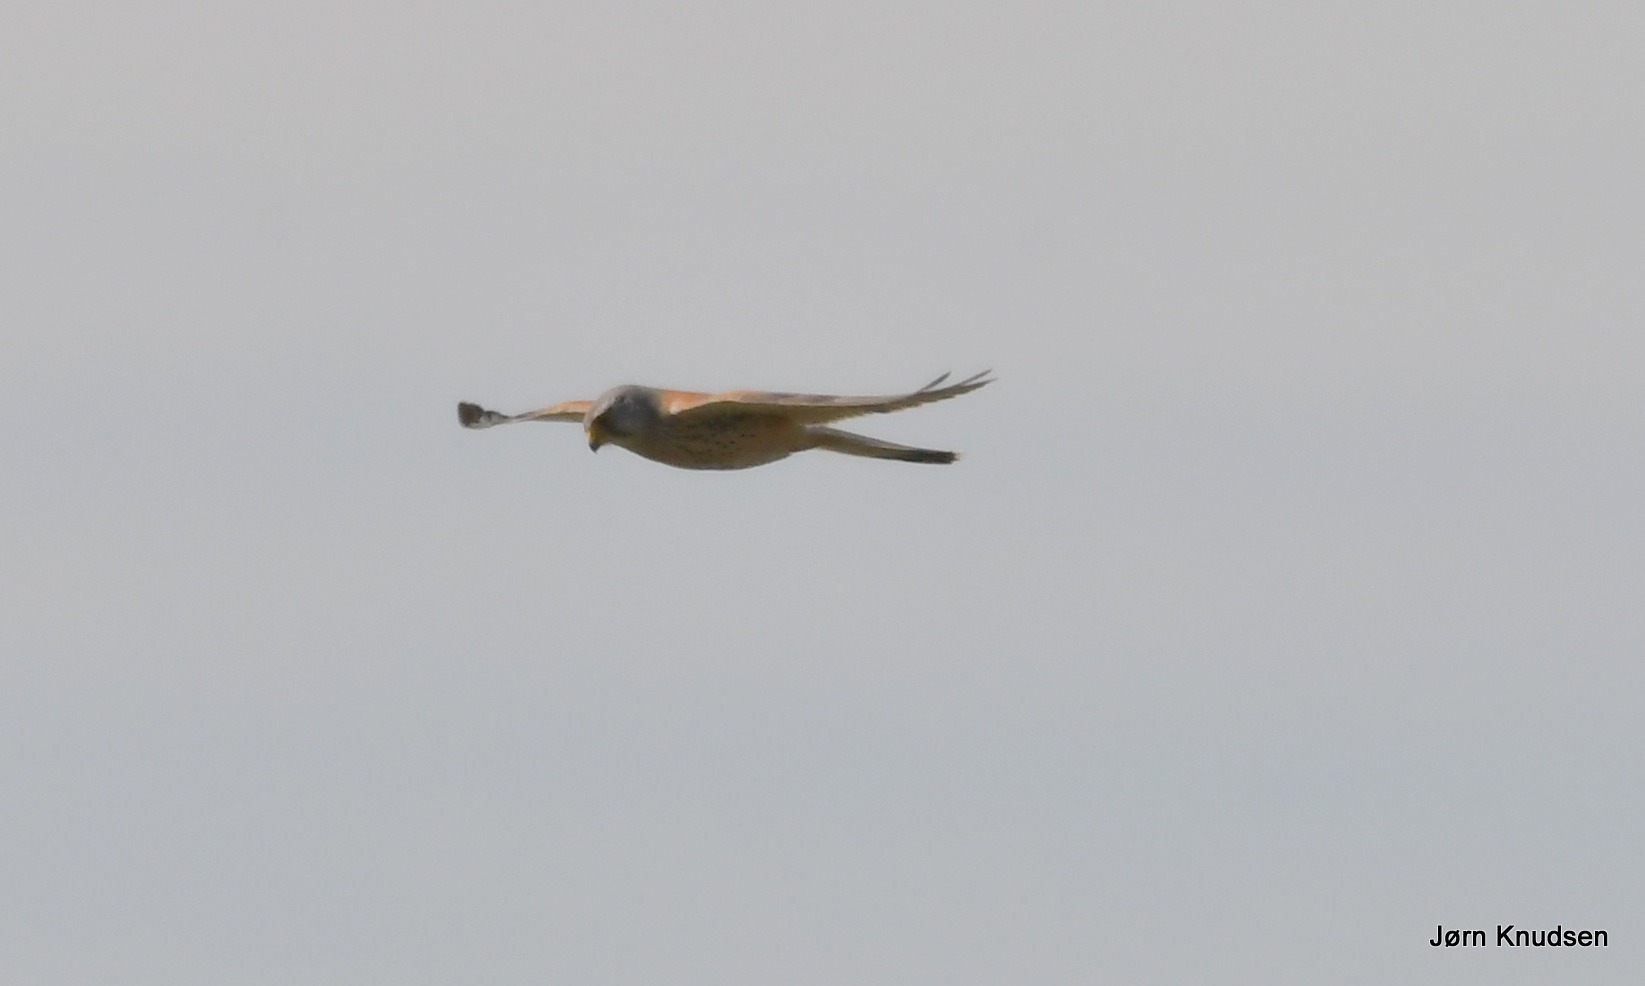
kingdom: Animalia
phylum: Chordata
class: Aves
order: Falconiformes
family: Falconidae
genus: Falco
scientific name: Falco tinnunculus
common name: Tårnfalk
